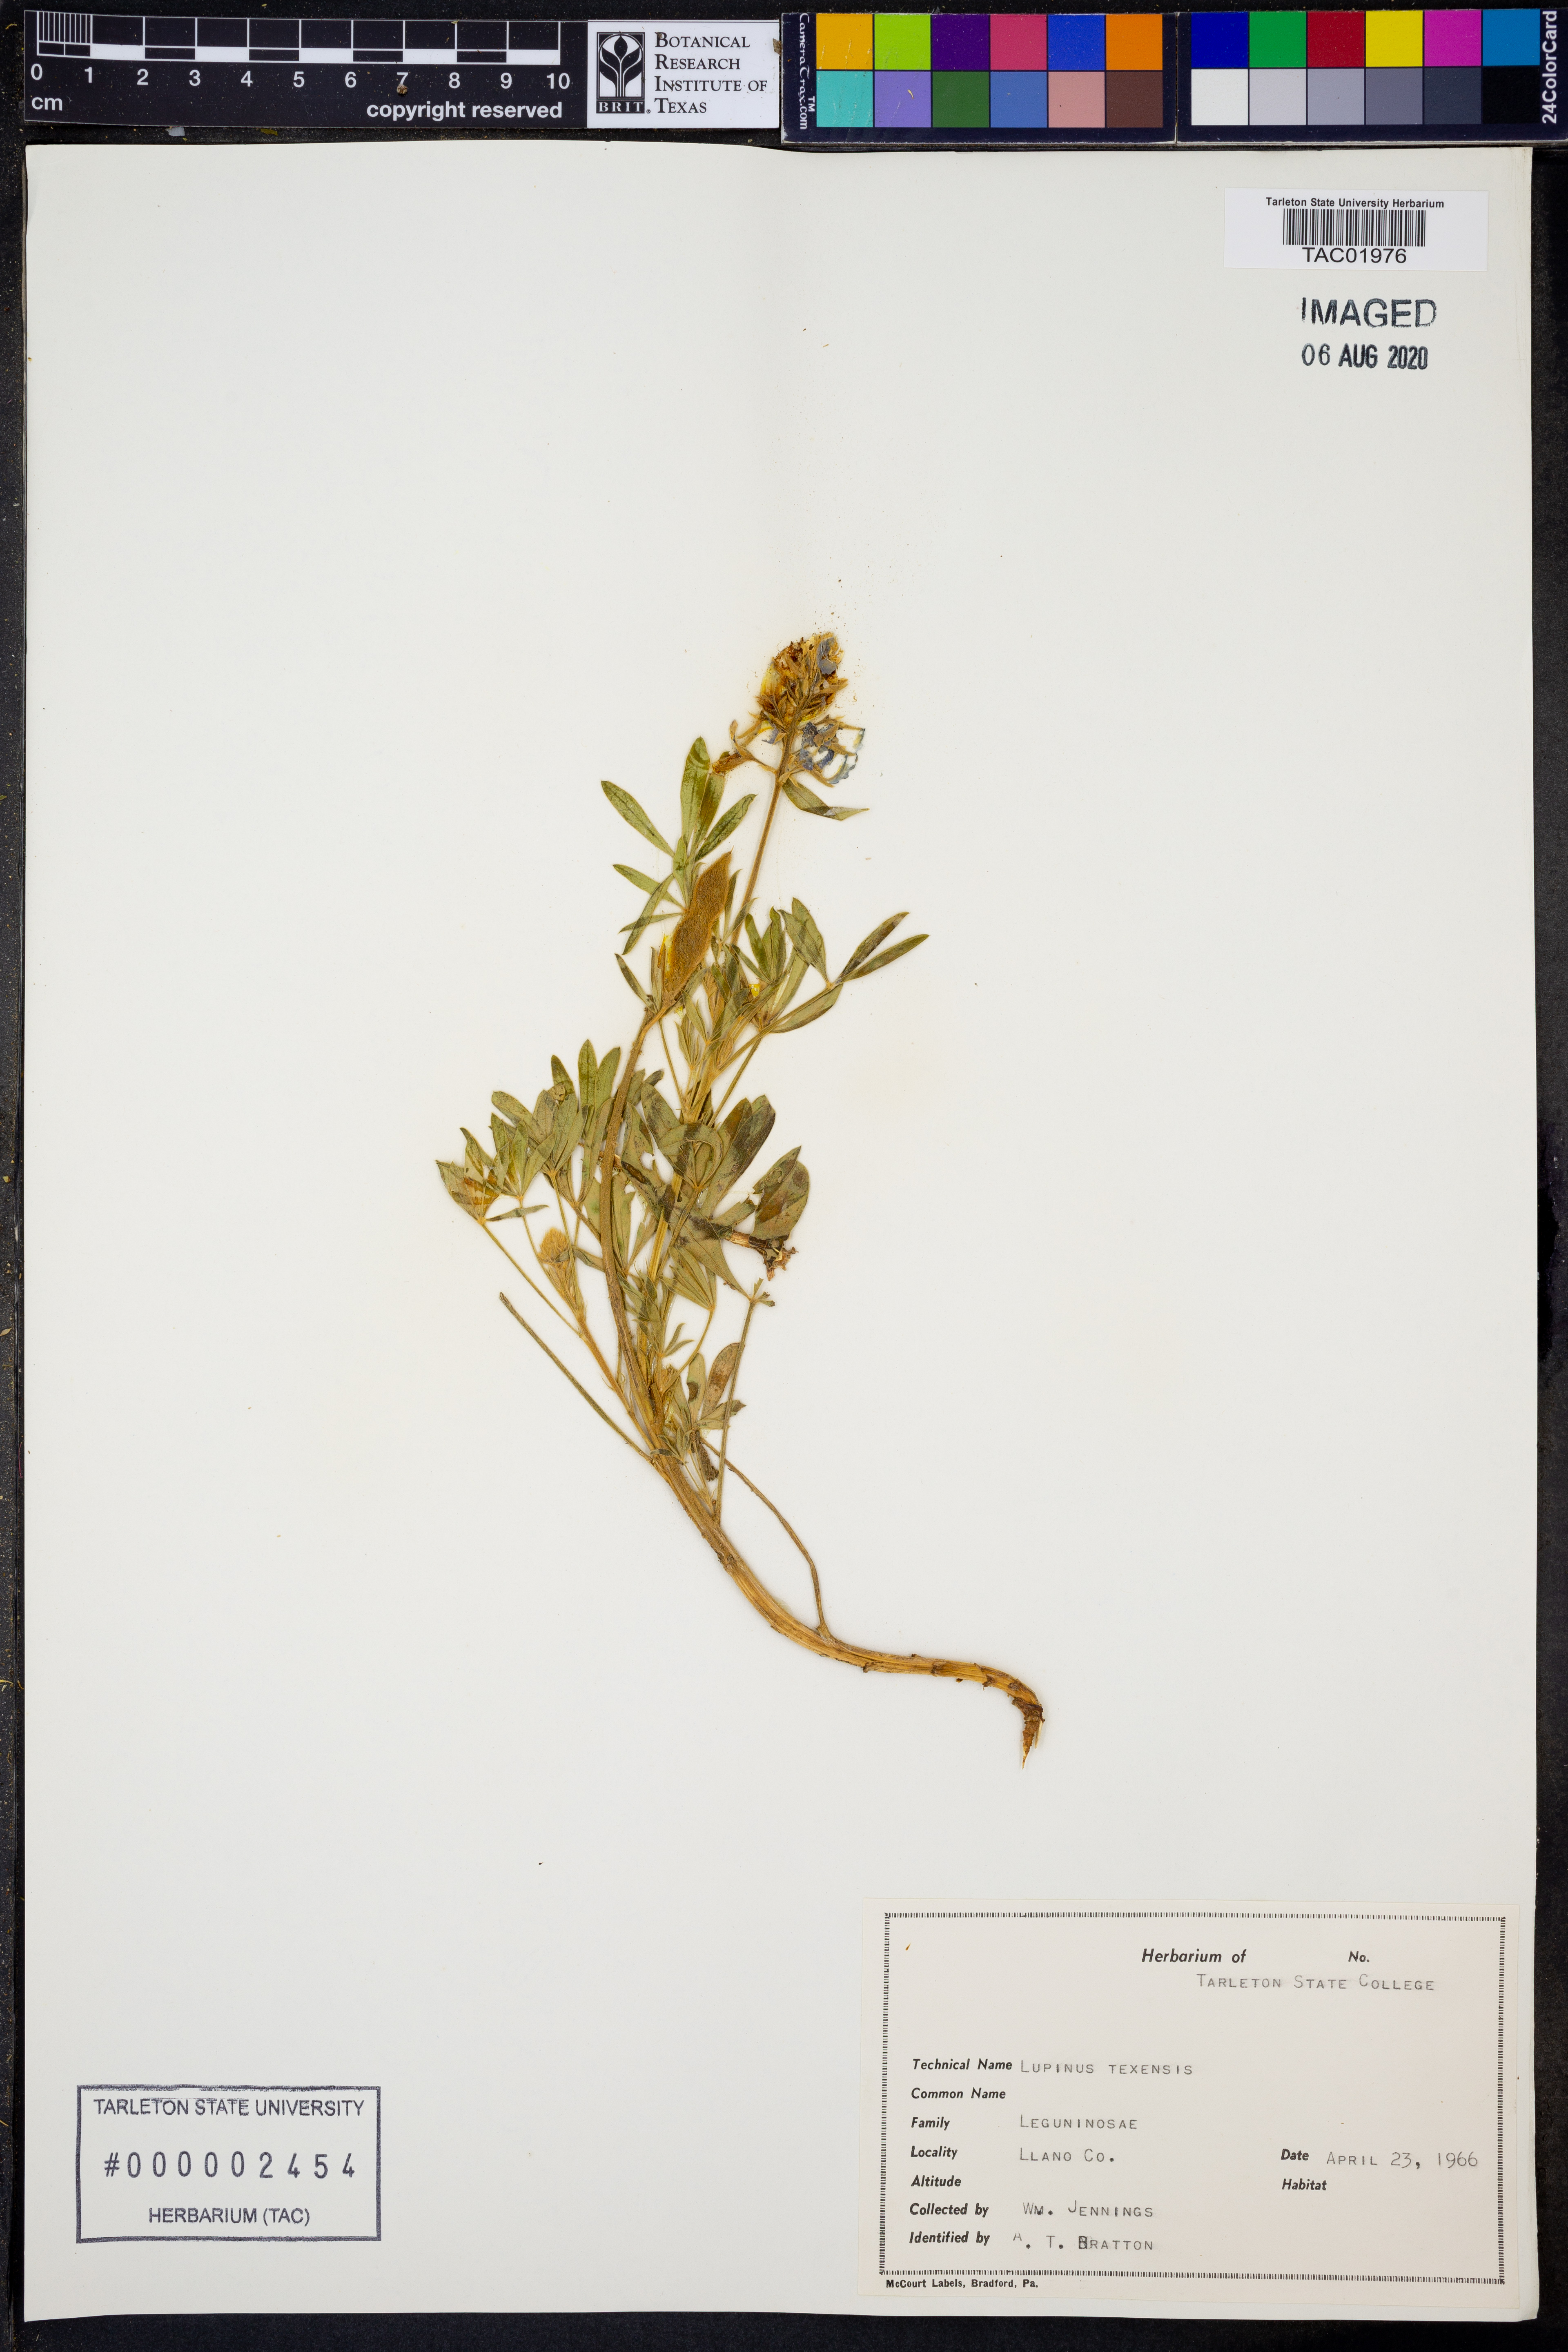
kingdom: Plantae
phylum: Tracheophyta
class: Magnoliopsida
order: Fabales
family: Fabaceae
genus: Lupinus
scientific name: Lupinus texensis
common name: Texas bluebonnet
